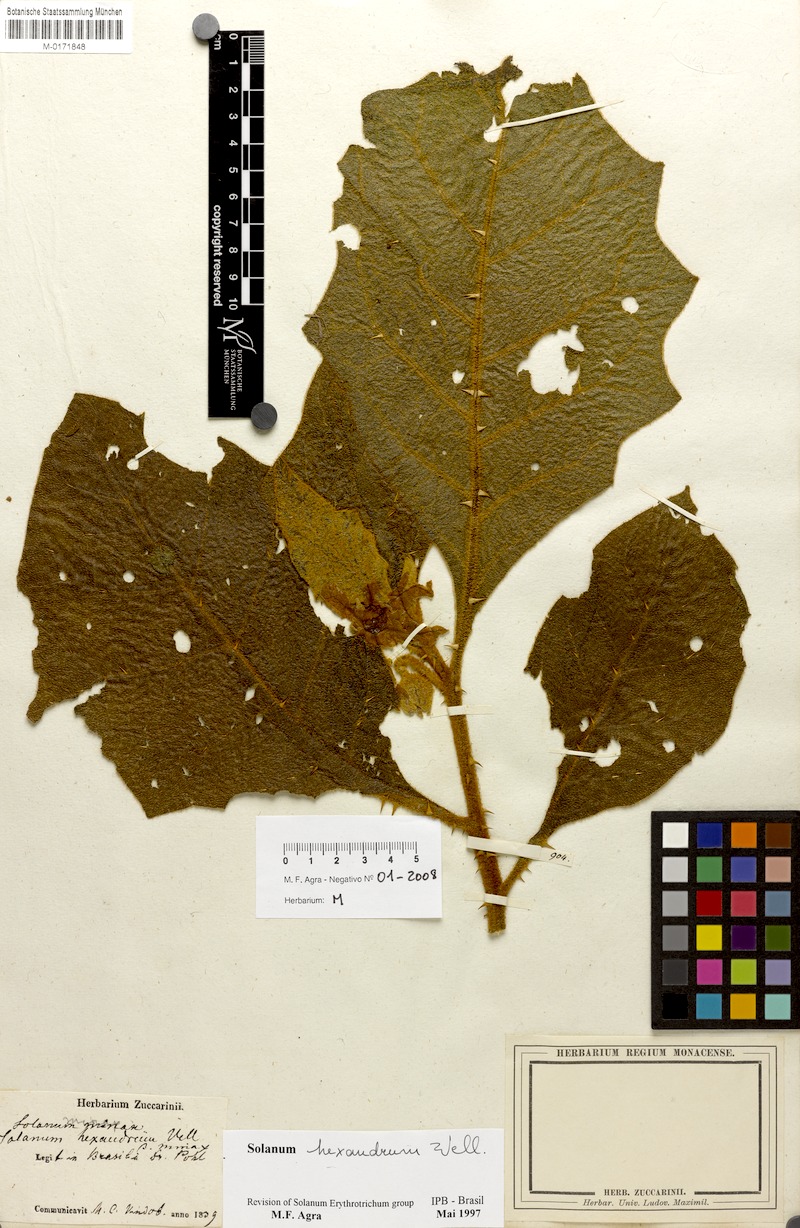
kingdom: Plantae
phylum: Tracheophyta
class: Magnoliopsida
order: Solanales
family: Solanaceae
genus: Solanum
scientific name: Solanum hexandrum
